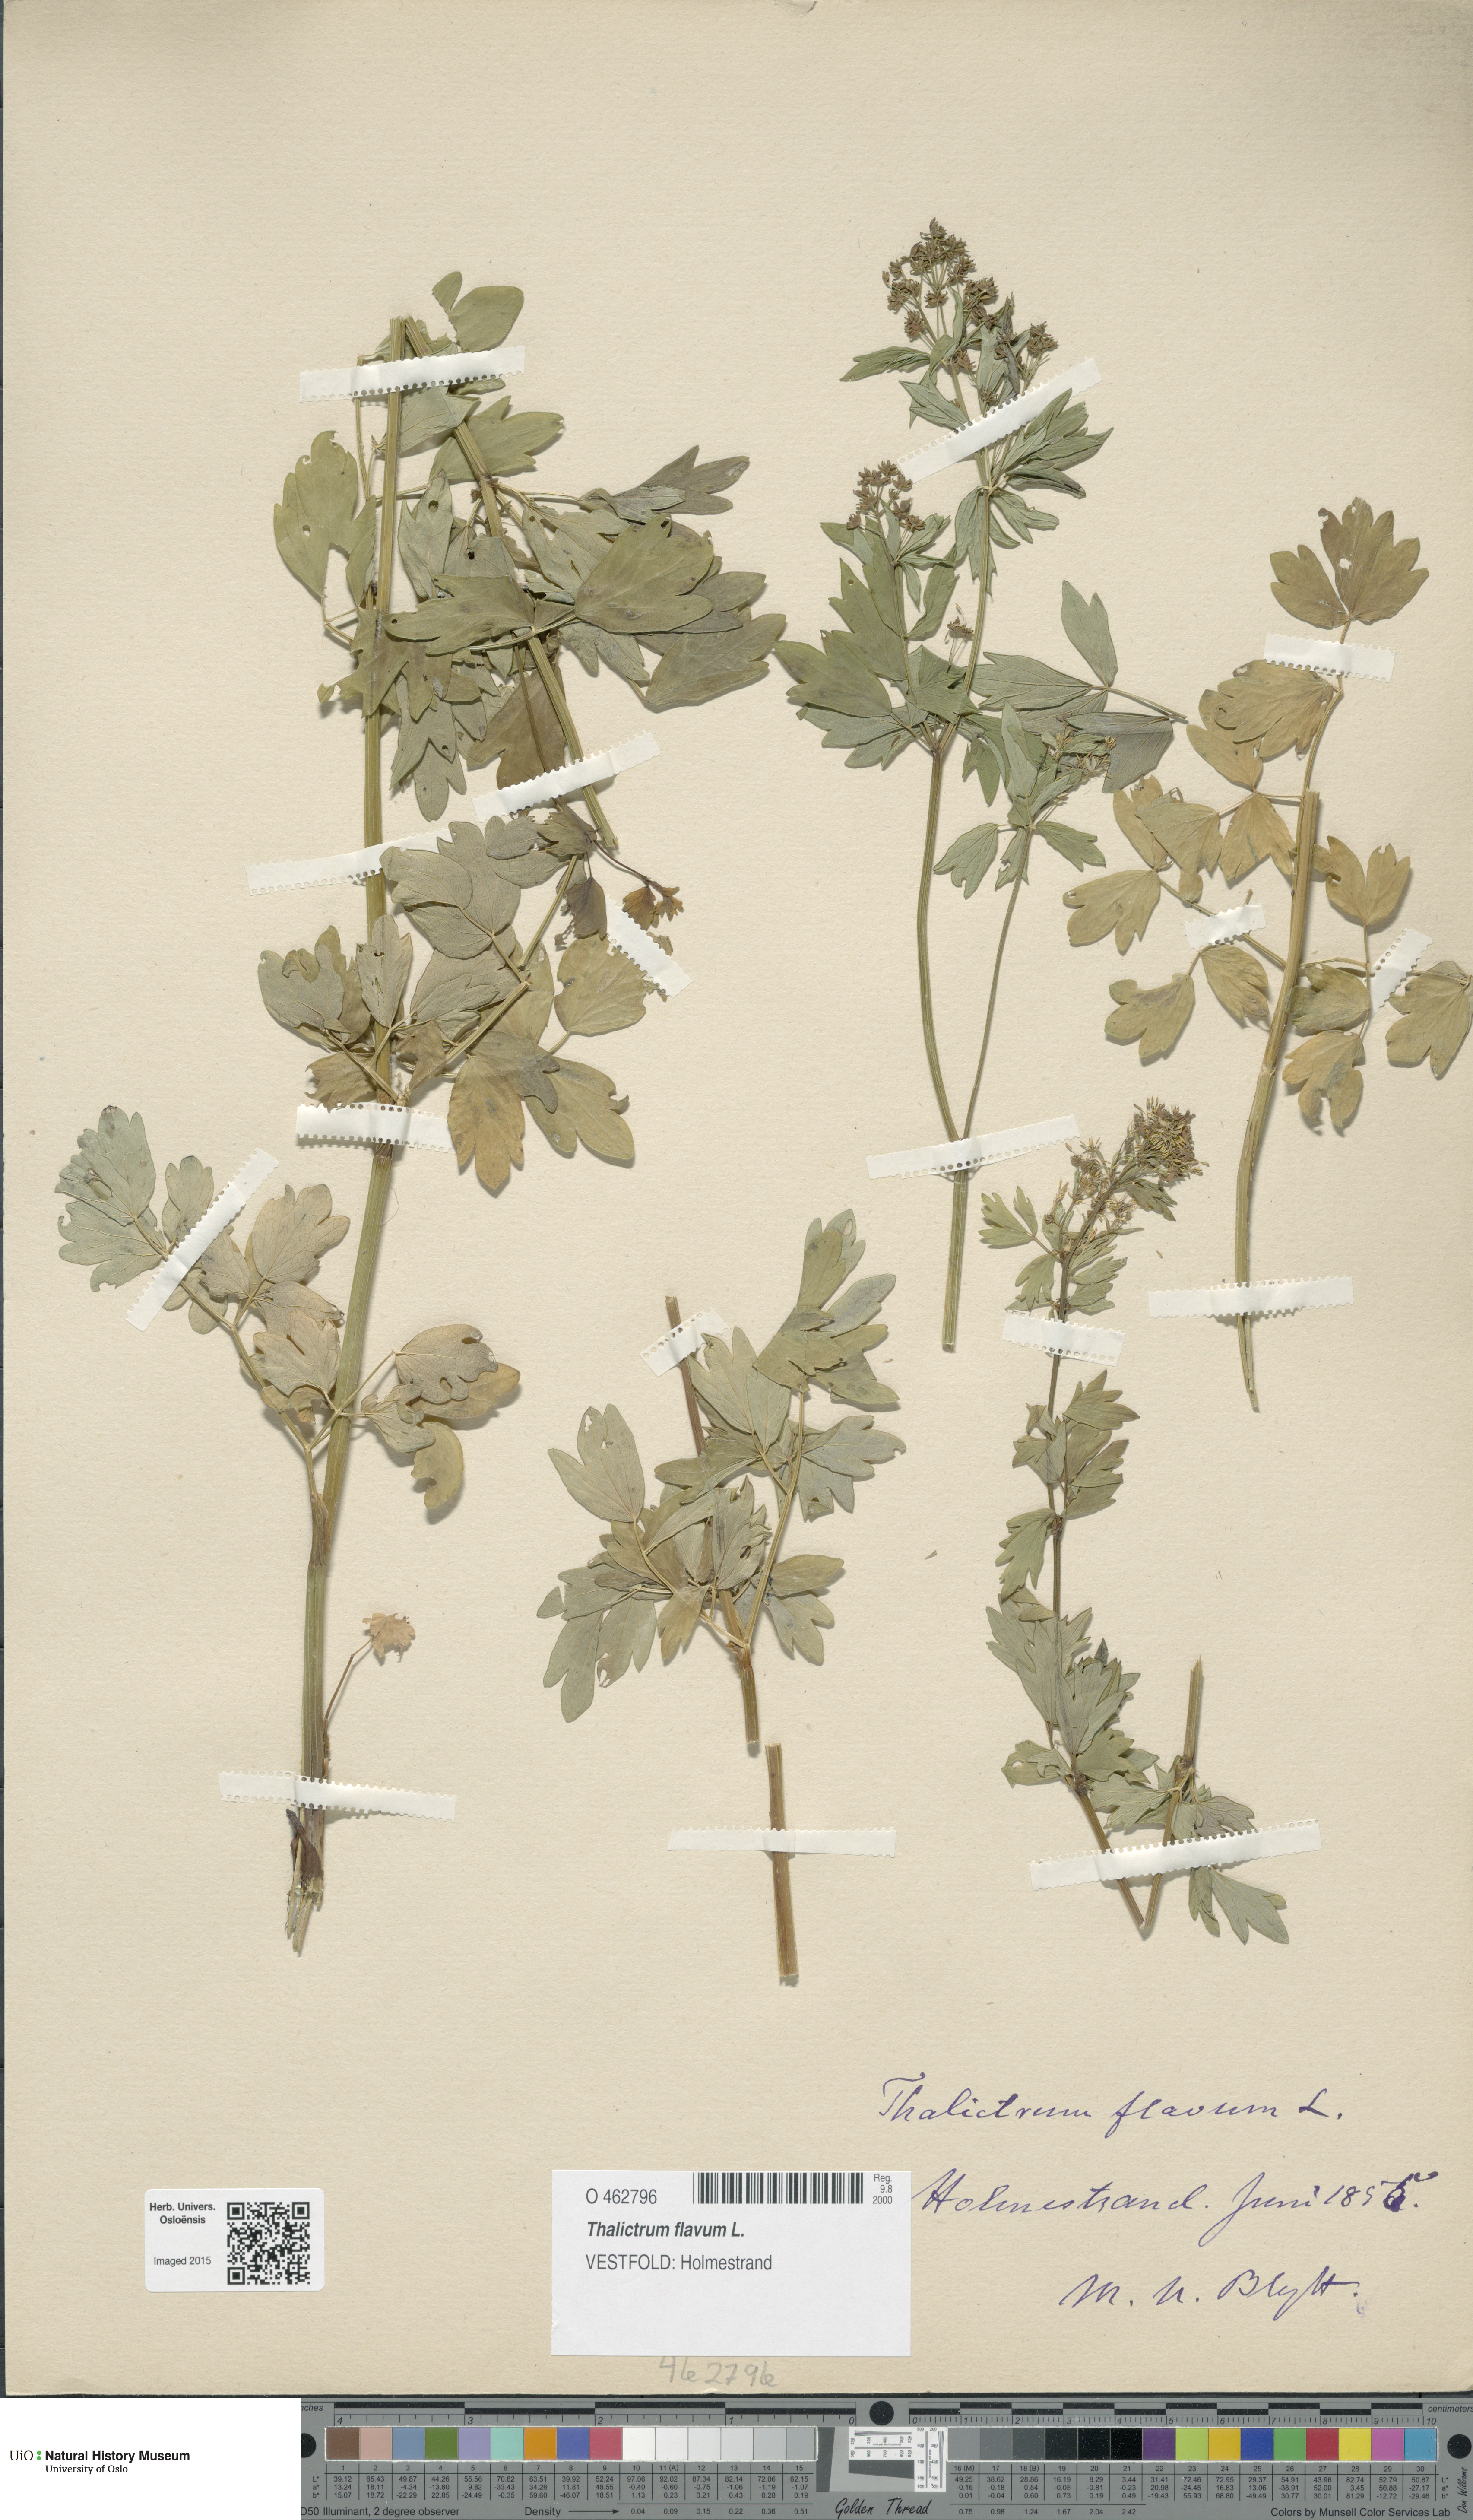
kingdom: Plantae
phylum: Tracheophyta
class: Magnoliopsida
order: Ranunculales
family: Ranunculaceae
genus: Thalictrum
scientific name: Thalictrum flavum
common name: Common meadow-rue
